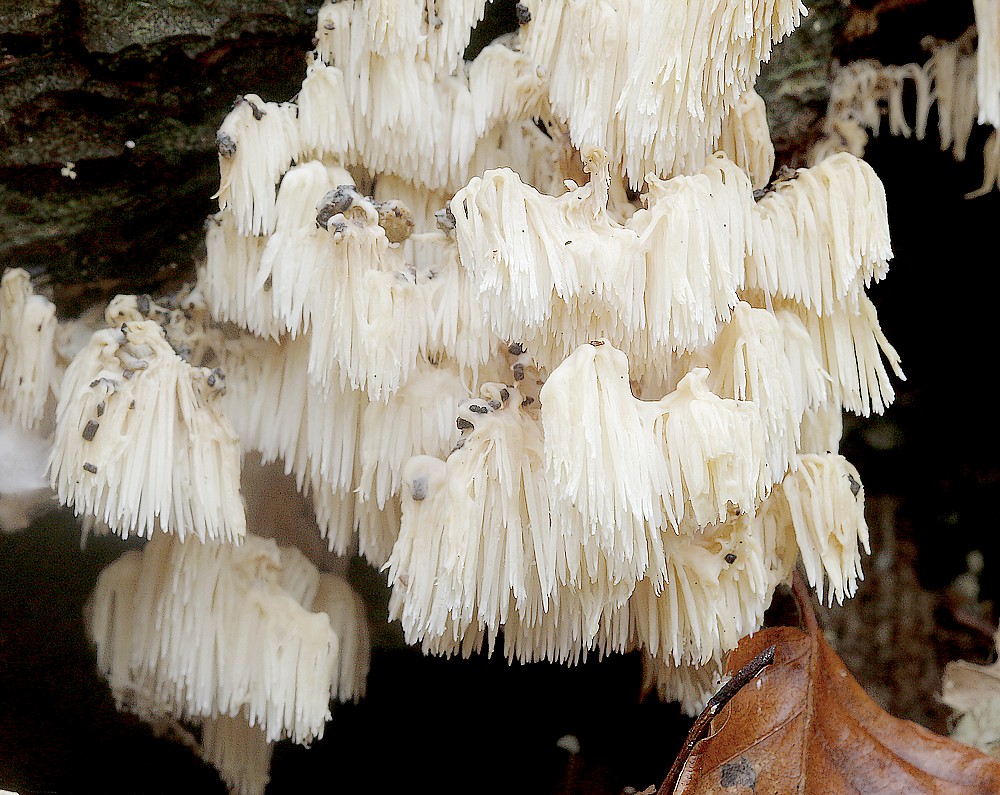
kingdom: Fungi
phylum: Basidiomycota
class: Agaricomycetes
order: Russulales
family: Hericiaceae
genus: Hericium
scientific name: Hericium coralloides
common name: koralpigsvamp
